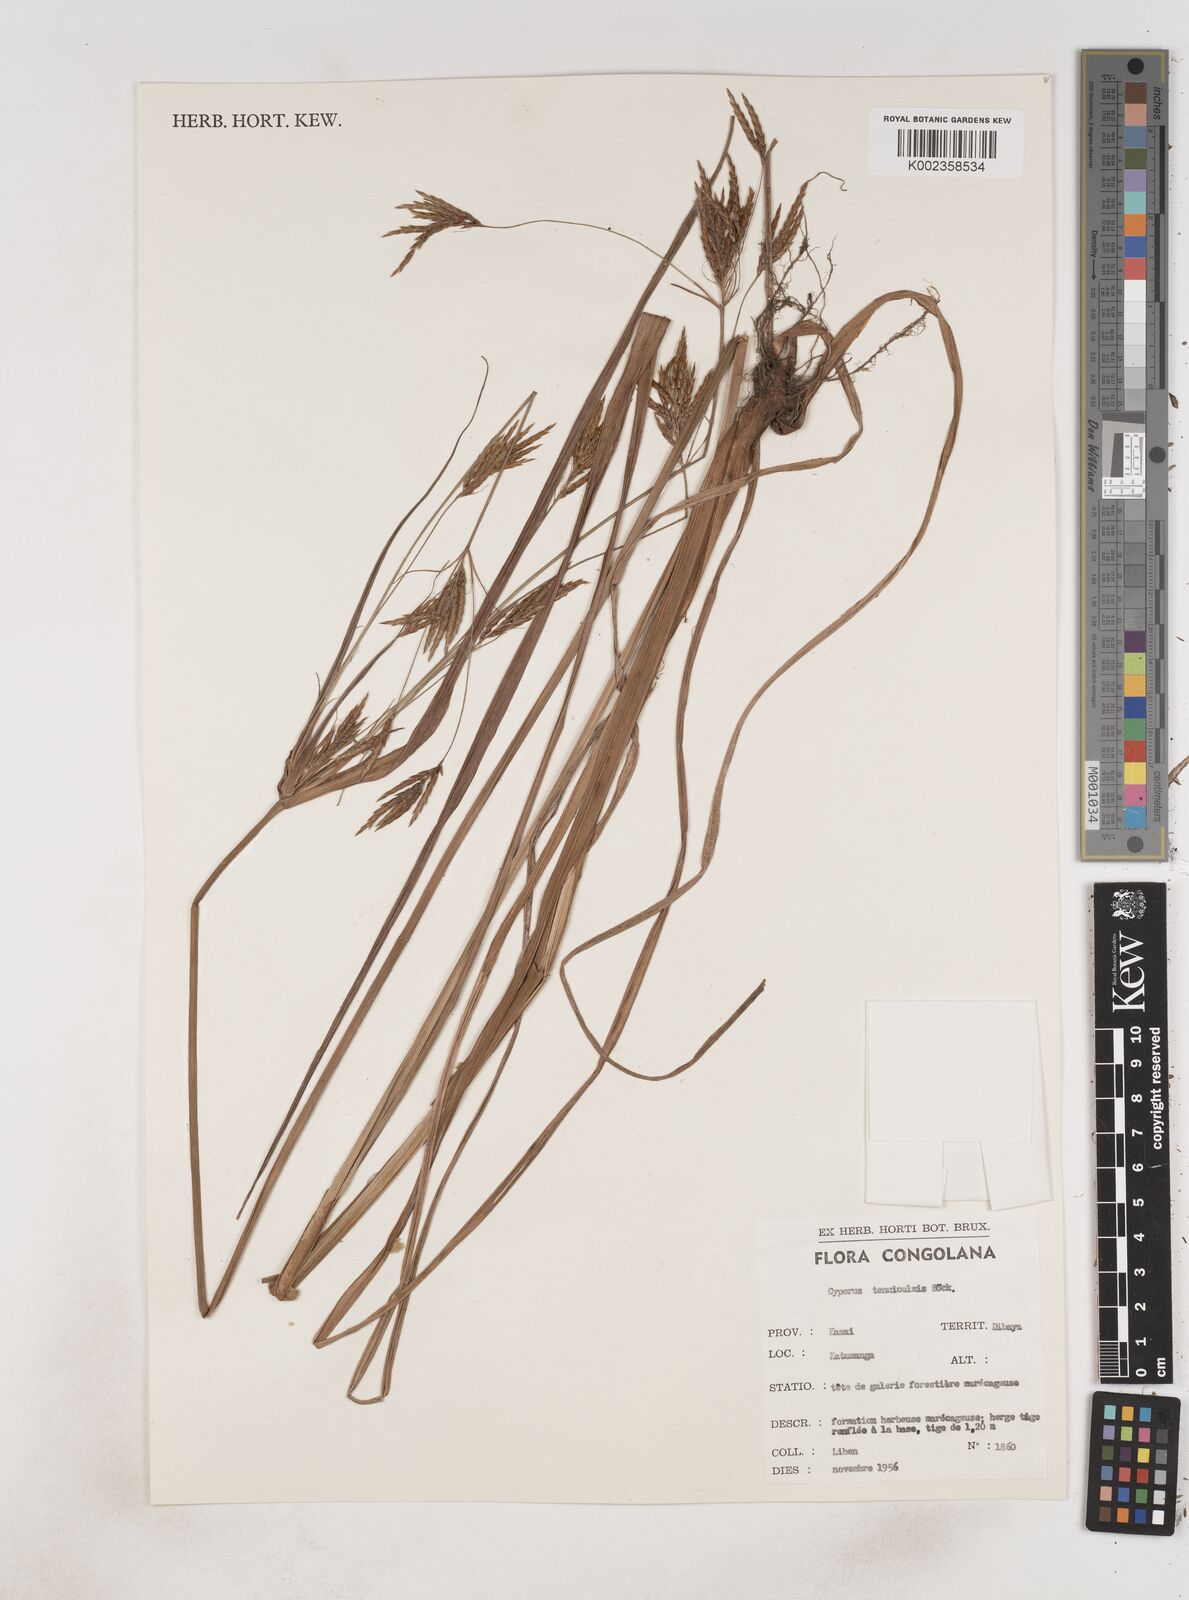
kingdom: Plantae
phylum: Tracheophyta
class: Liliopsida
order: Poales
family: Cyperaceae
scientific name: Cyperaceae
